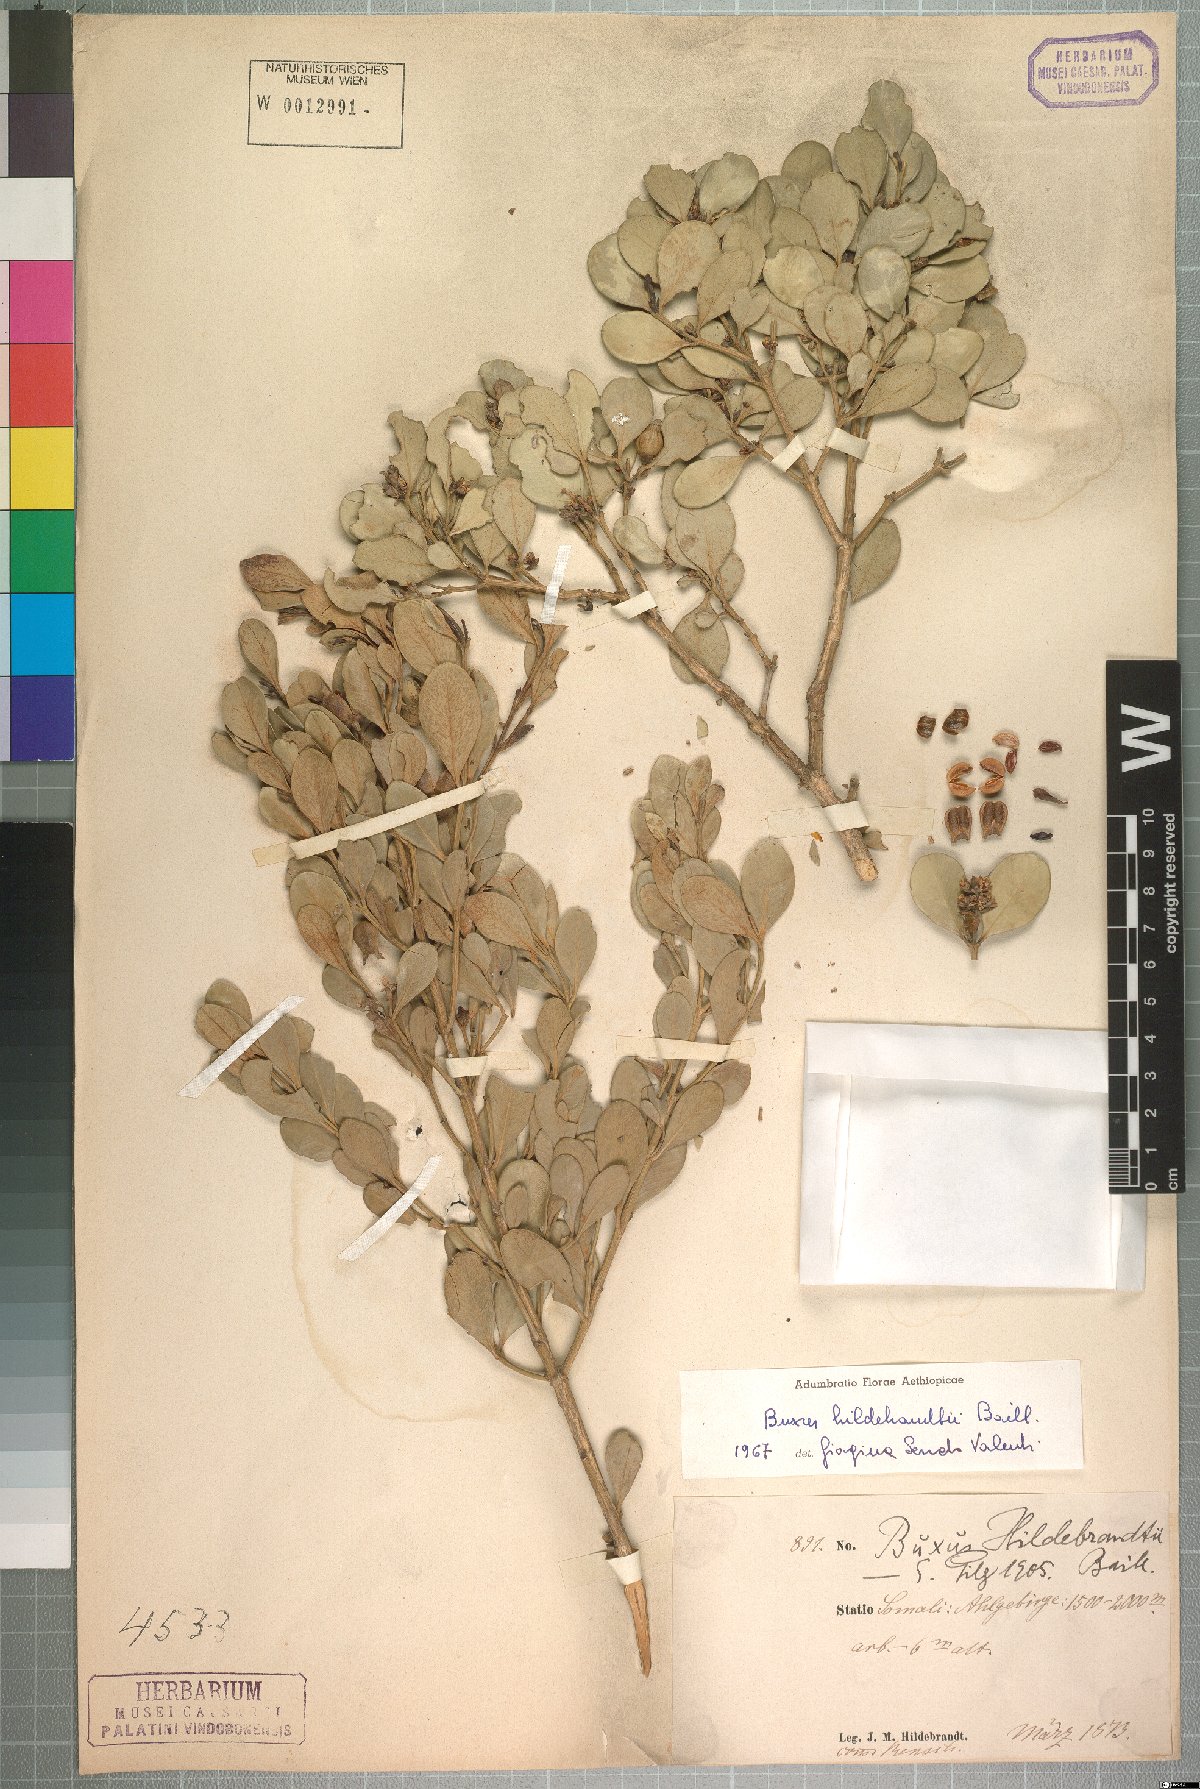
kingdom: Plantae
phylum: Tracheophyta
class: Magnoliopsida
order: Buxales
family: Buxaceae
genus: Buxus
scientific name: Buxus hildebrandtii
